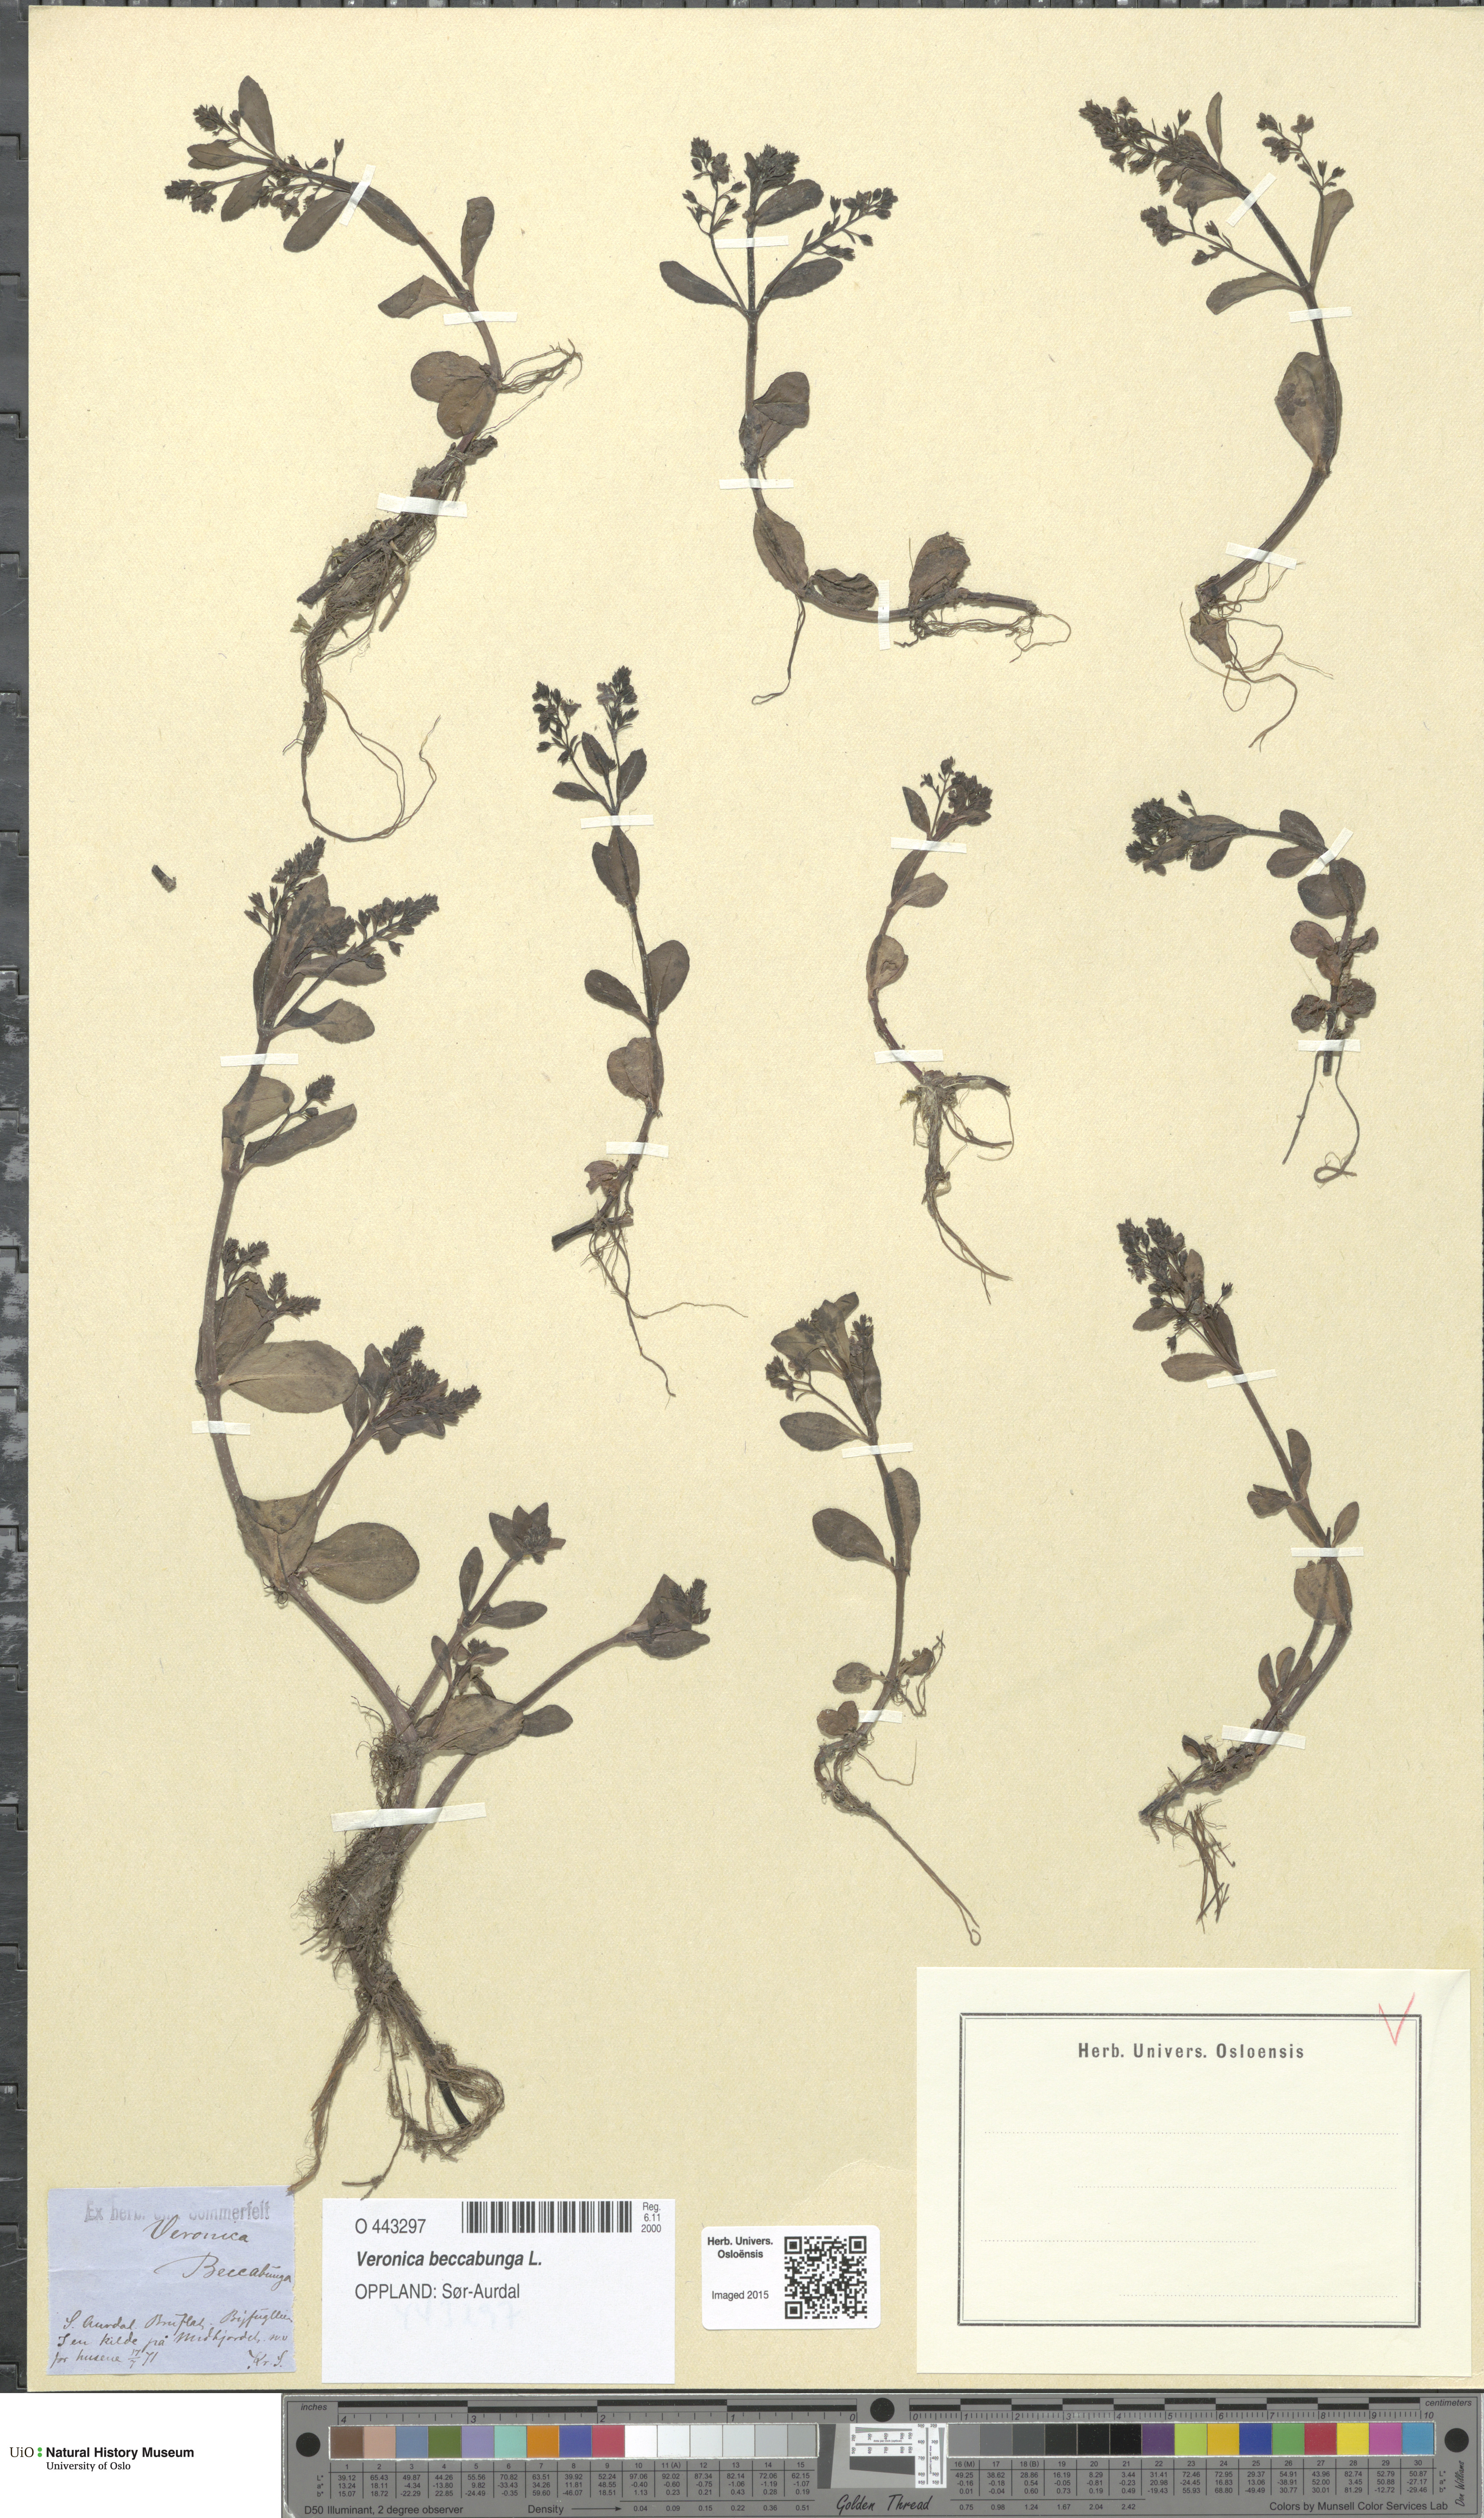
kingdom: Plantae
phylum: Tracheophyta
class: Magnoliopsida
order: Lamiales
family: Plantaginaceae
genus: Veronica
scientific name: Veronica beccabunga
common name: Brooklime
